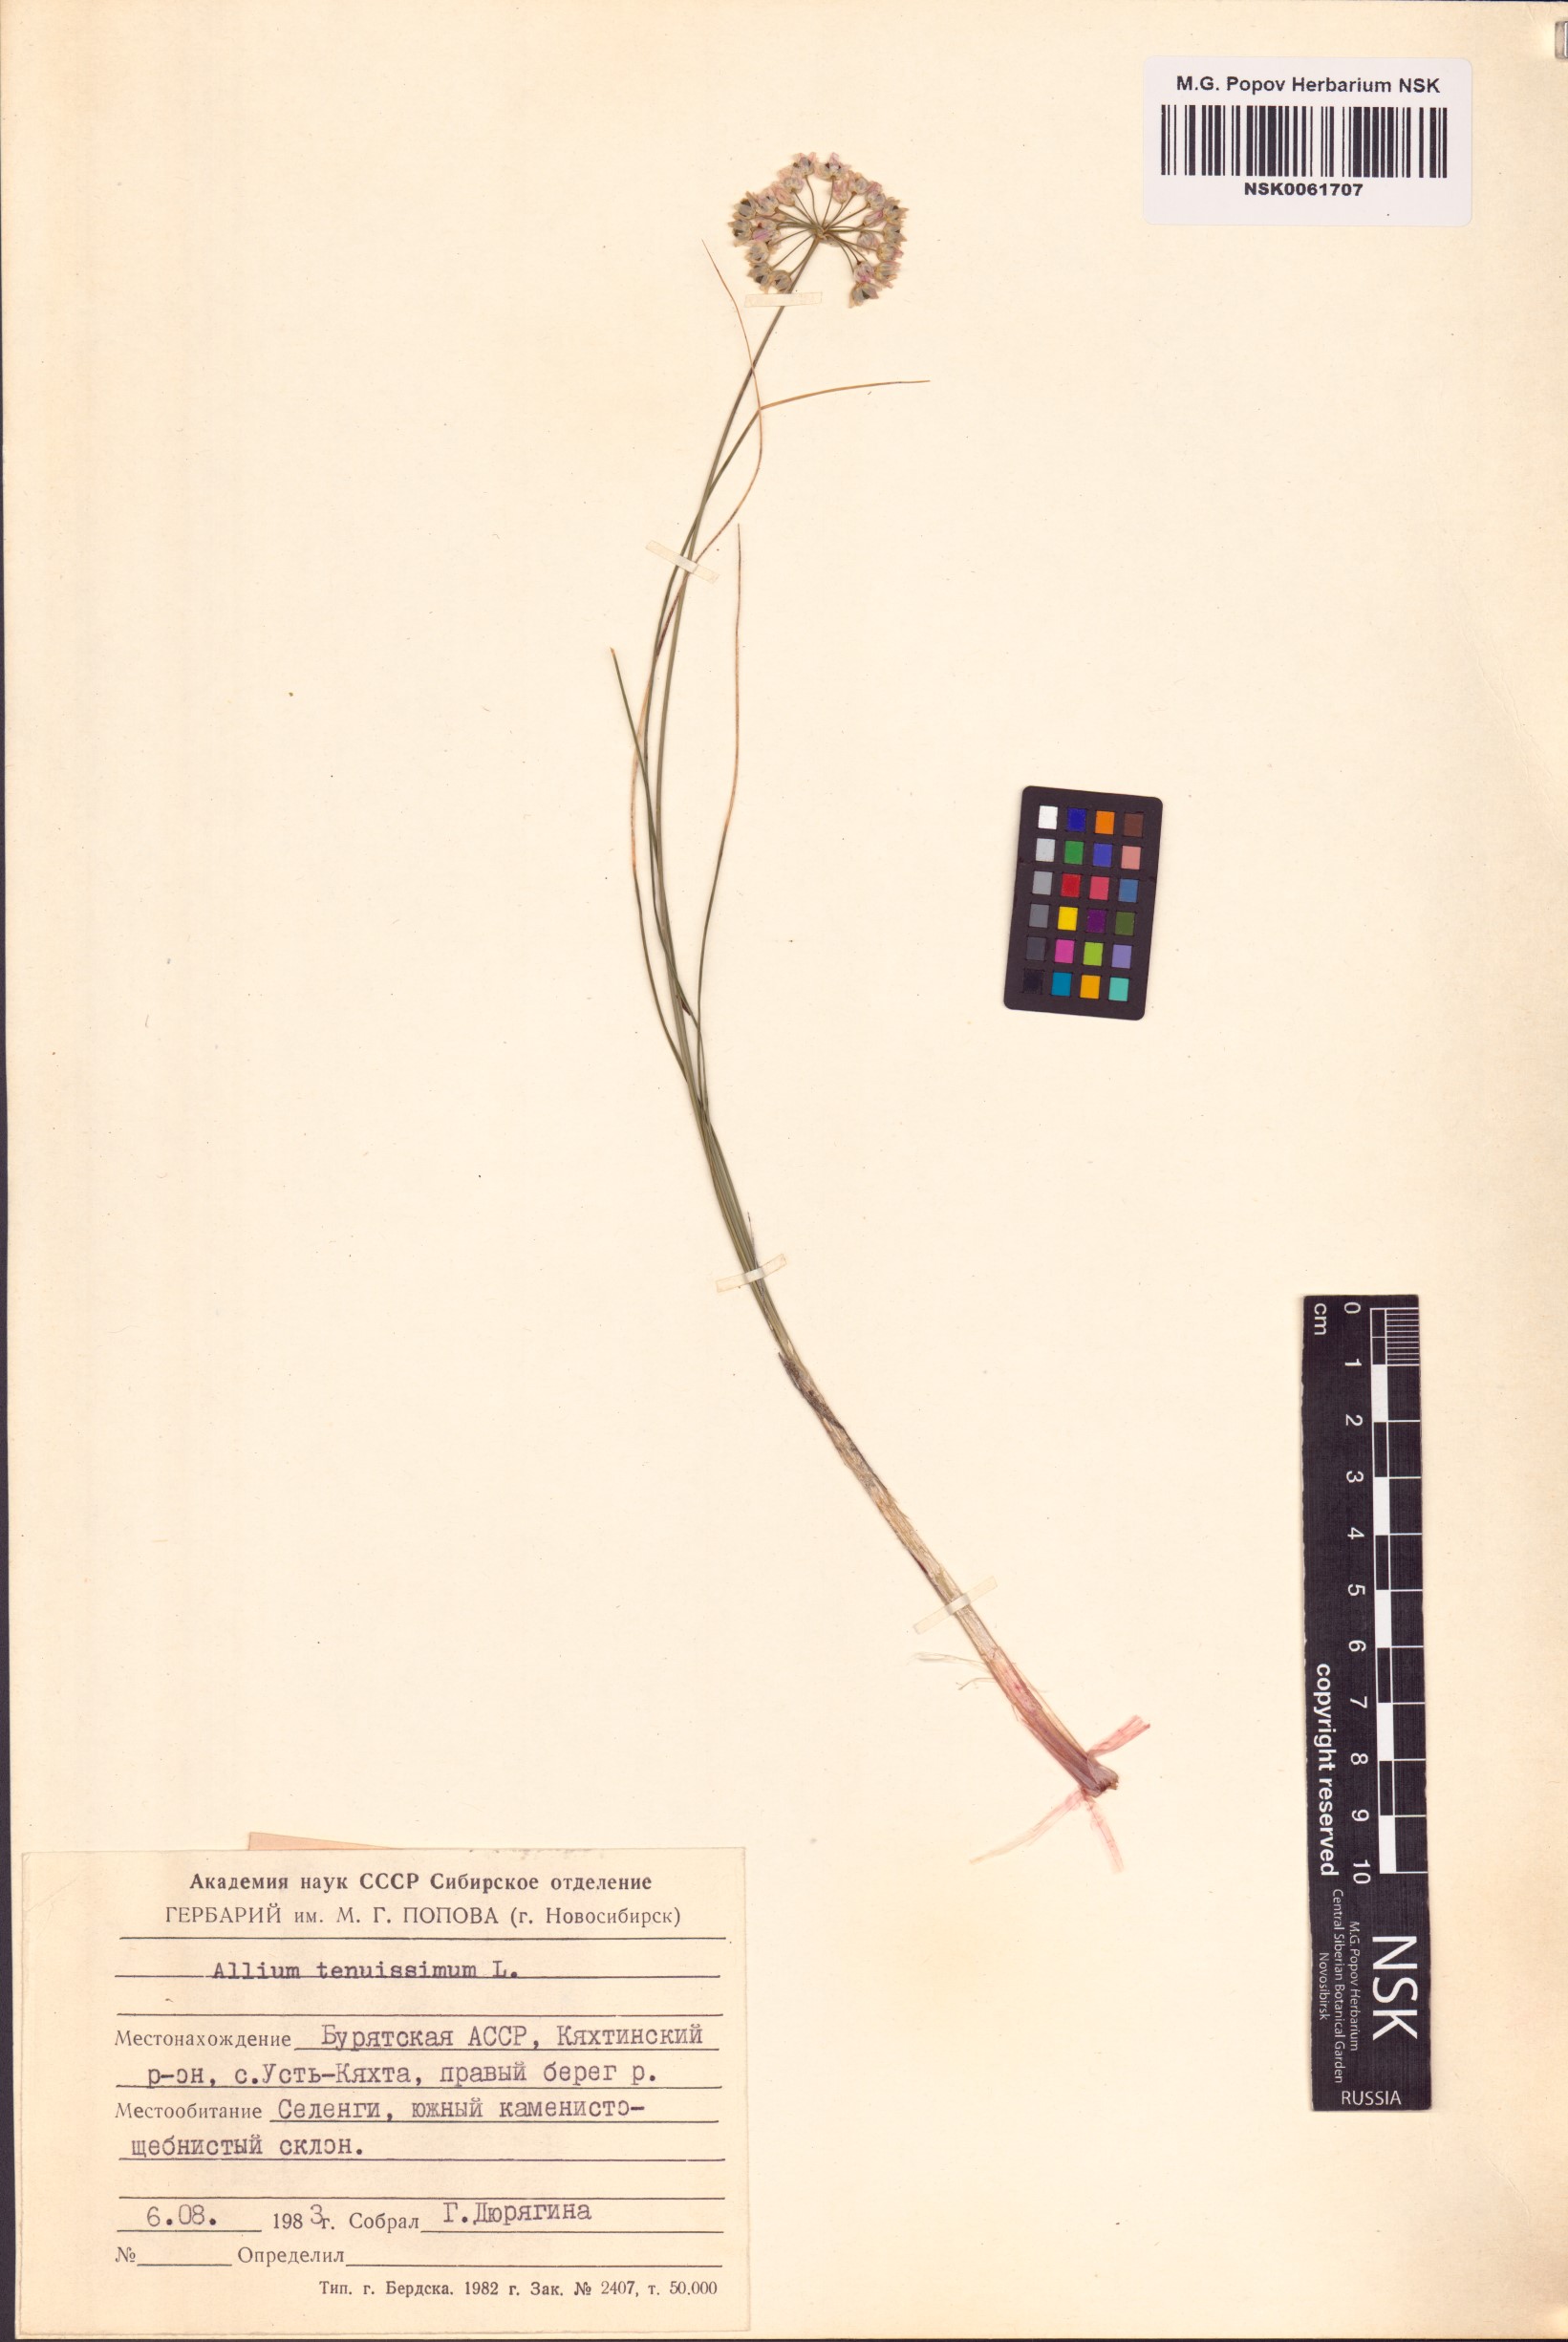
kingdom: Plantae
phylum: Tracheophyta
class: Liliopsida
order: Asparagales
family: Amaryllidaceae
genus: Allium
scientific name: Allium tenuissimum
